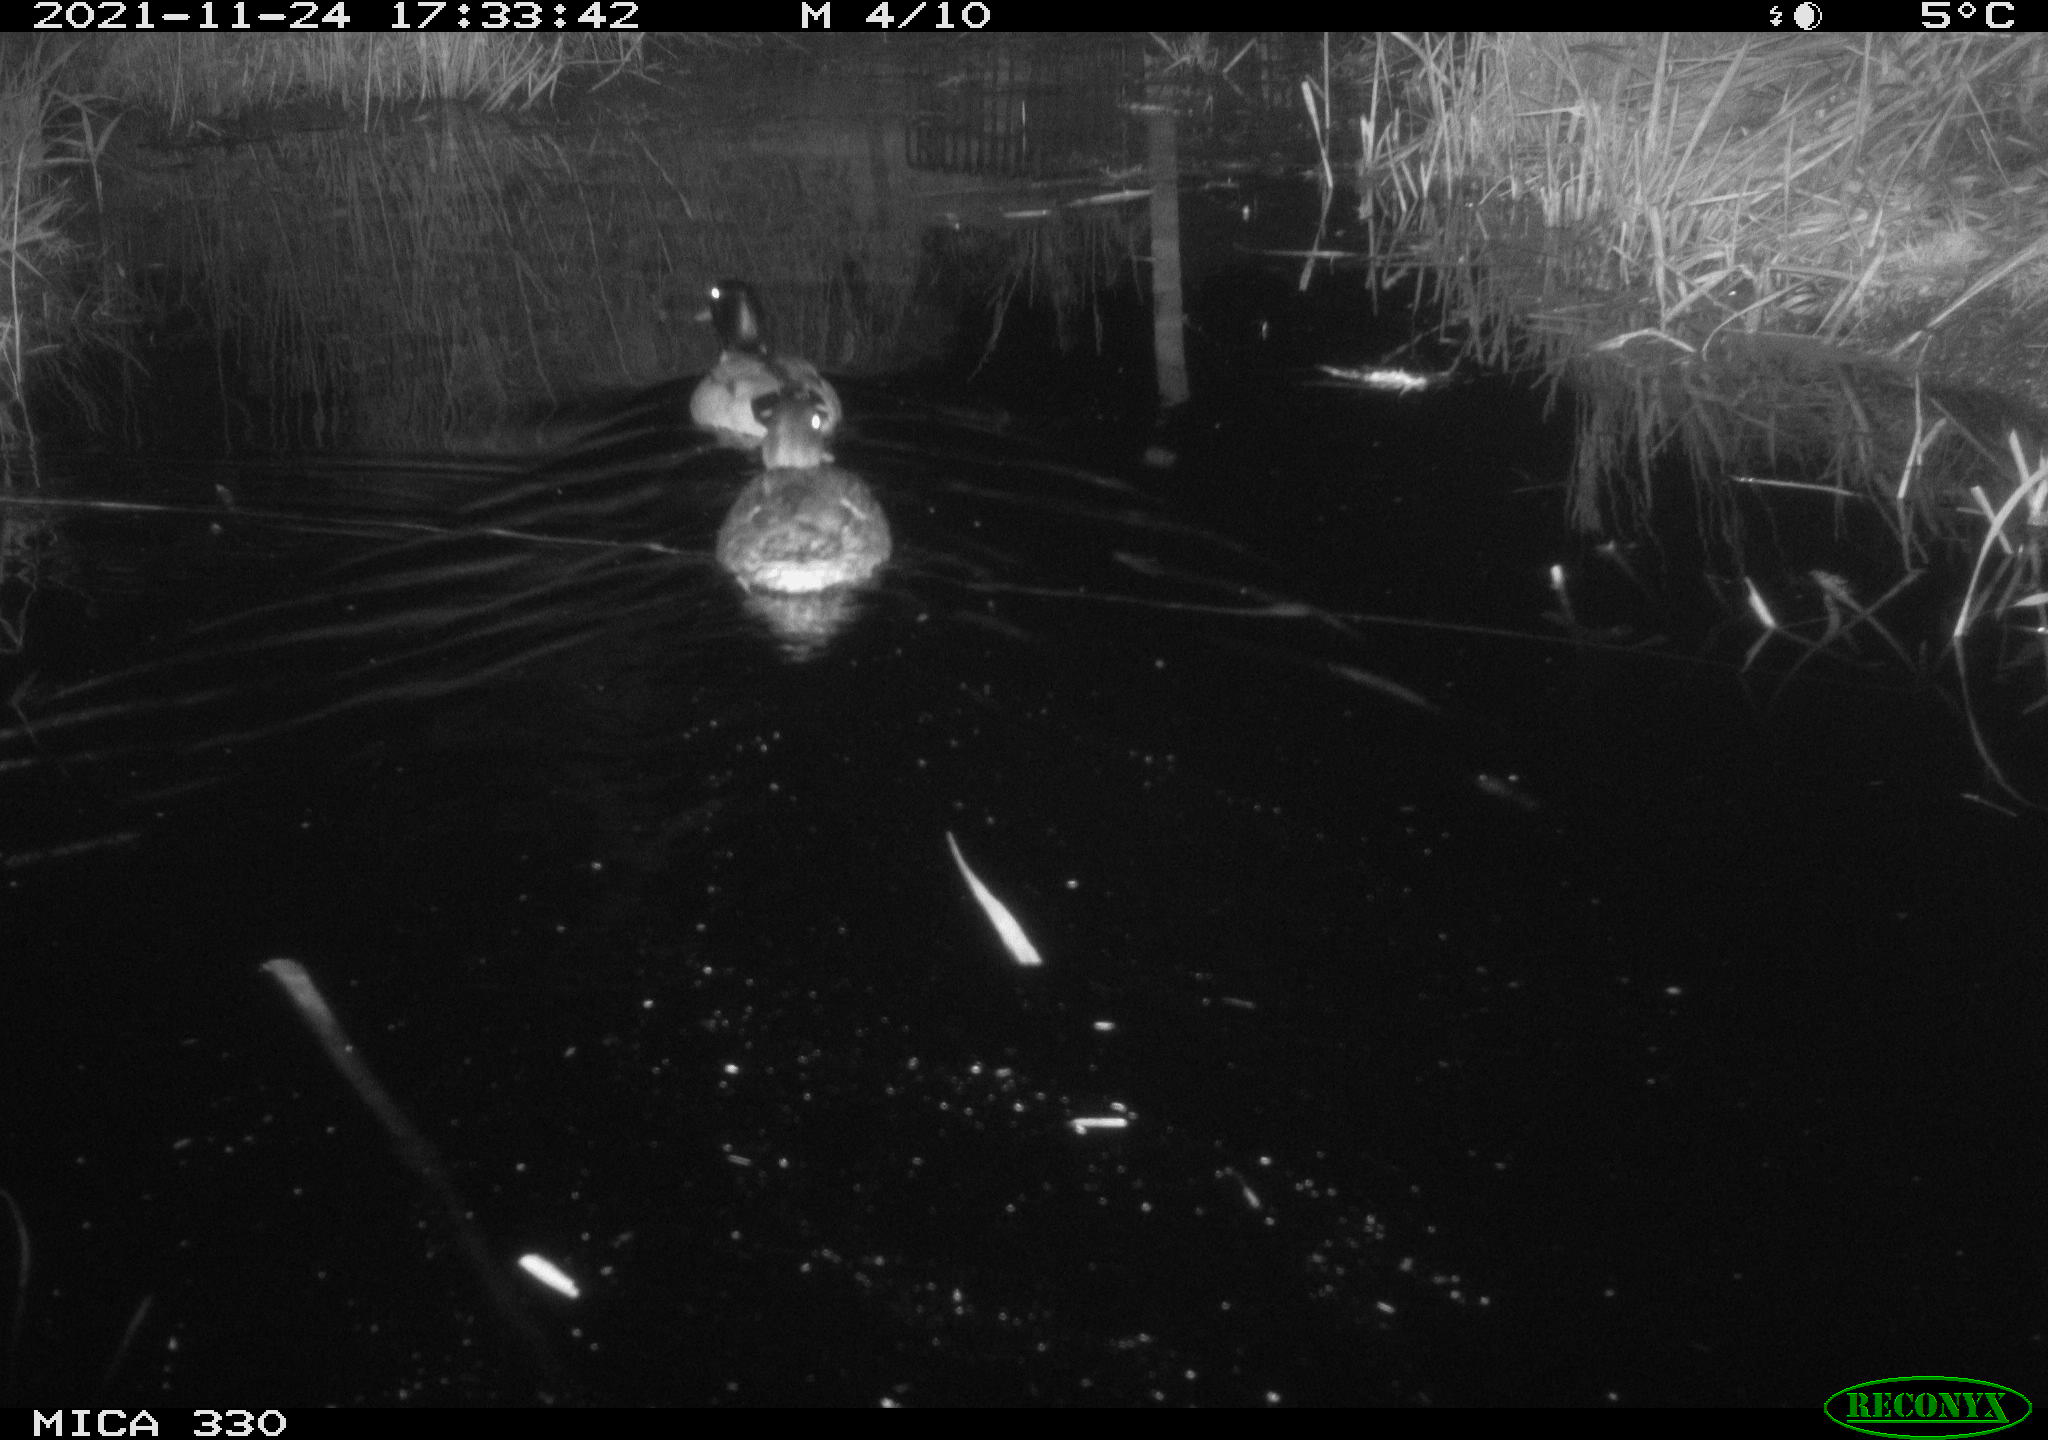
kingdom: Animalia
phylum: Chordata
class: Aves
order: Anseriformes
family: Anatidae
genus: Anas
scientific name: Anas platyrhynchos
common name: Mallard
